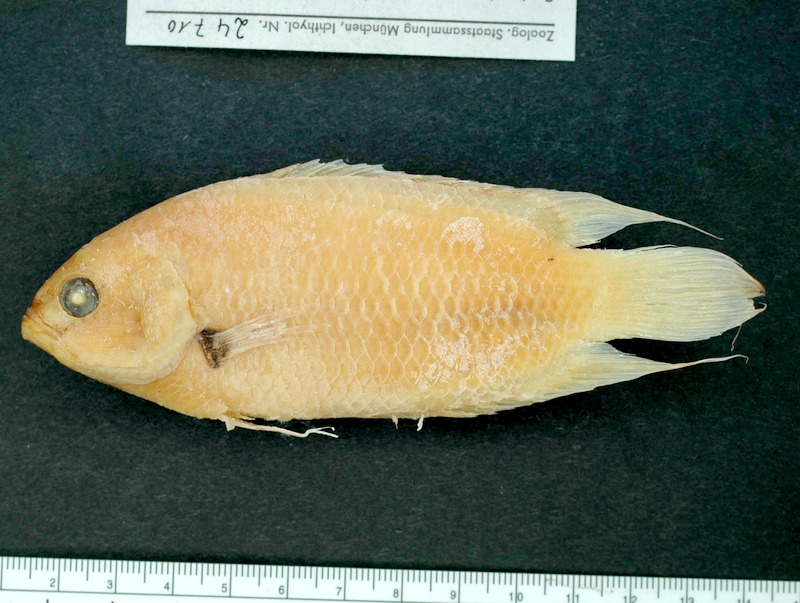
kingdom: Animalia
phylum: Chordata
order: Perciformes
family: Osphronemidae
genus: Belontia
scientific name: Belontia signata
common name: Combtail
